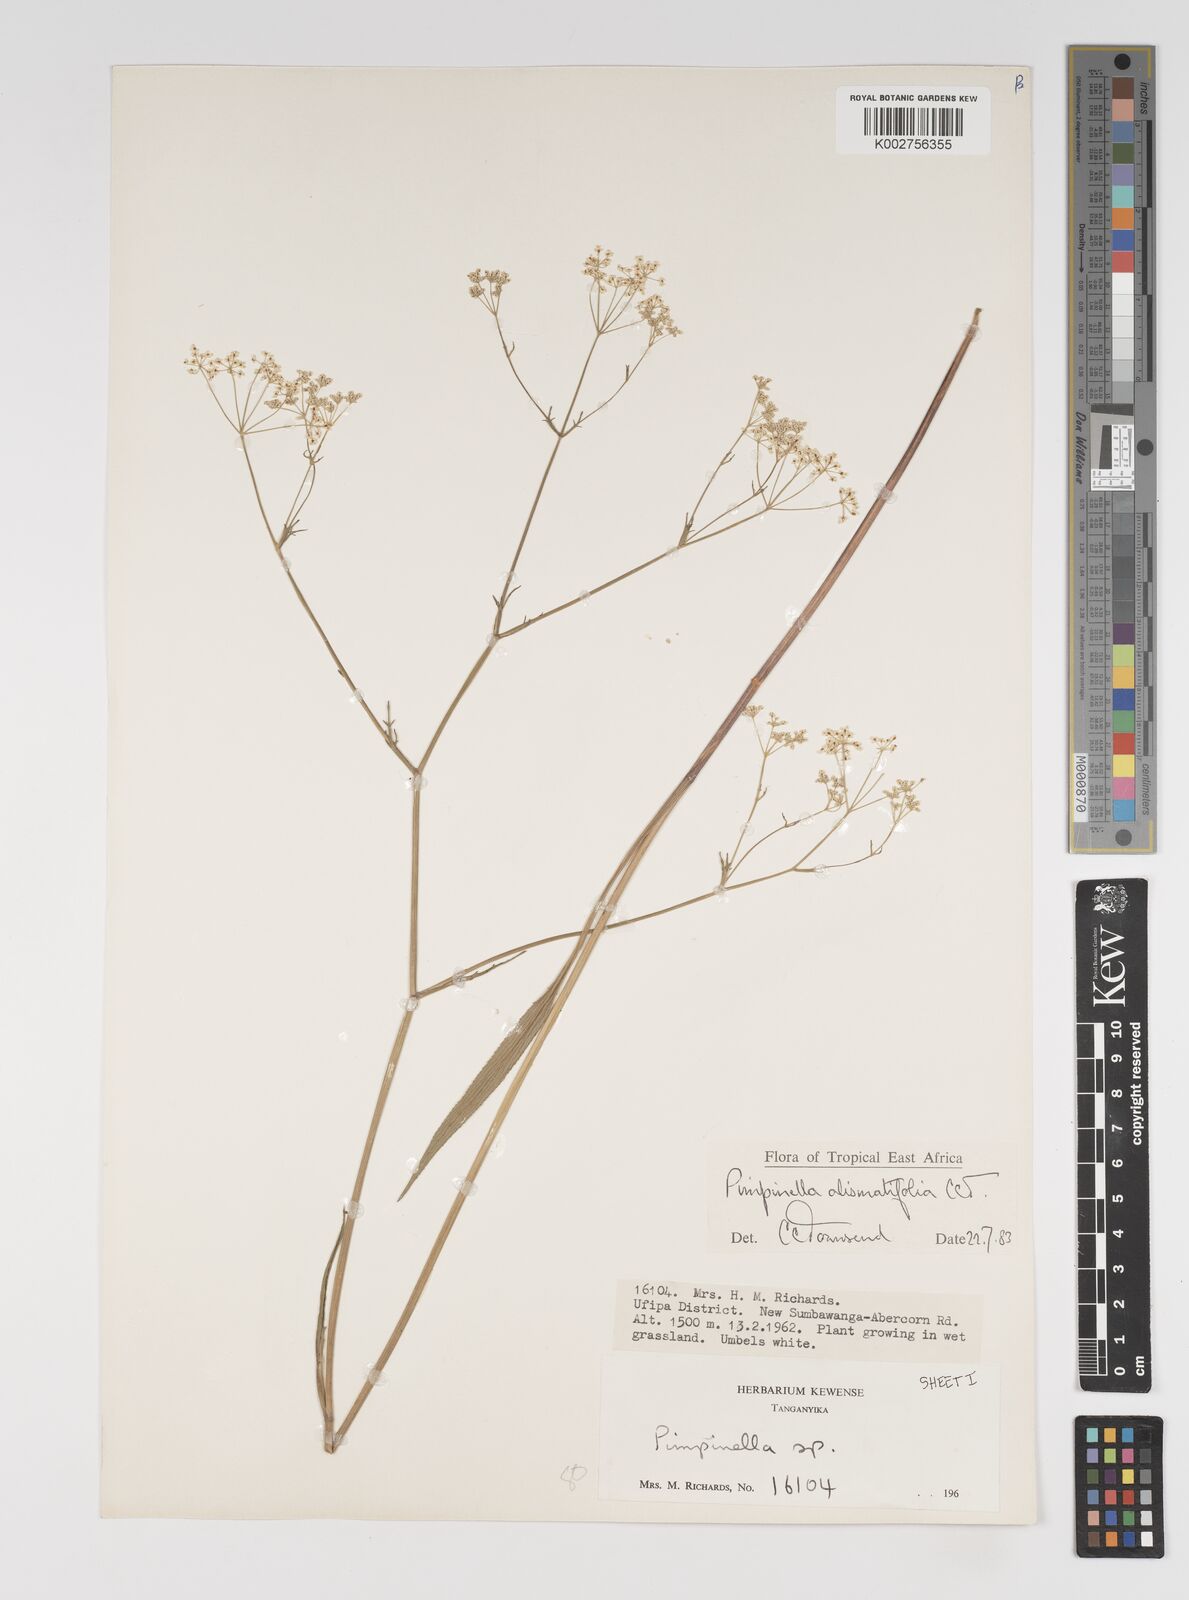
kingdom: Plantae
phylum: Tracheophyta
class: Magnoliopsida
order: Apiales
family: Apiaceae
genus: Pimpinella
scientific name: Pimpinella alismatifolia
